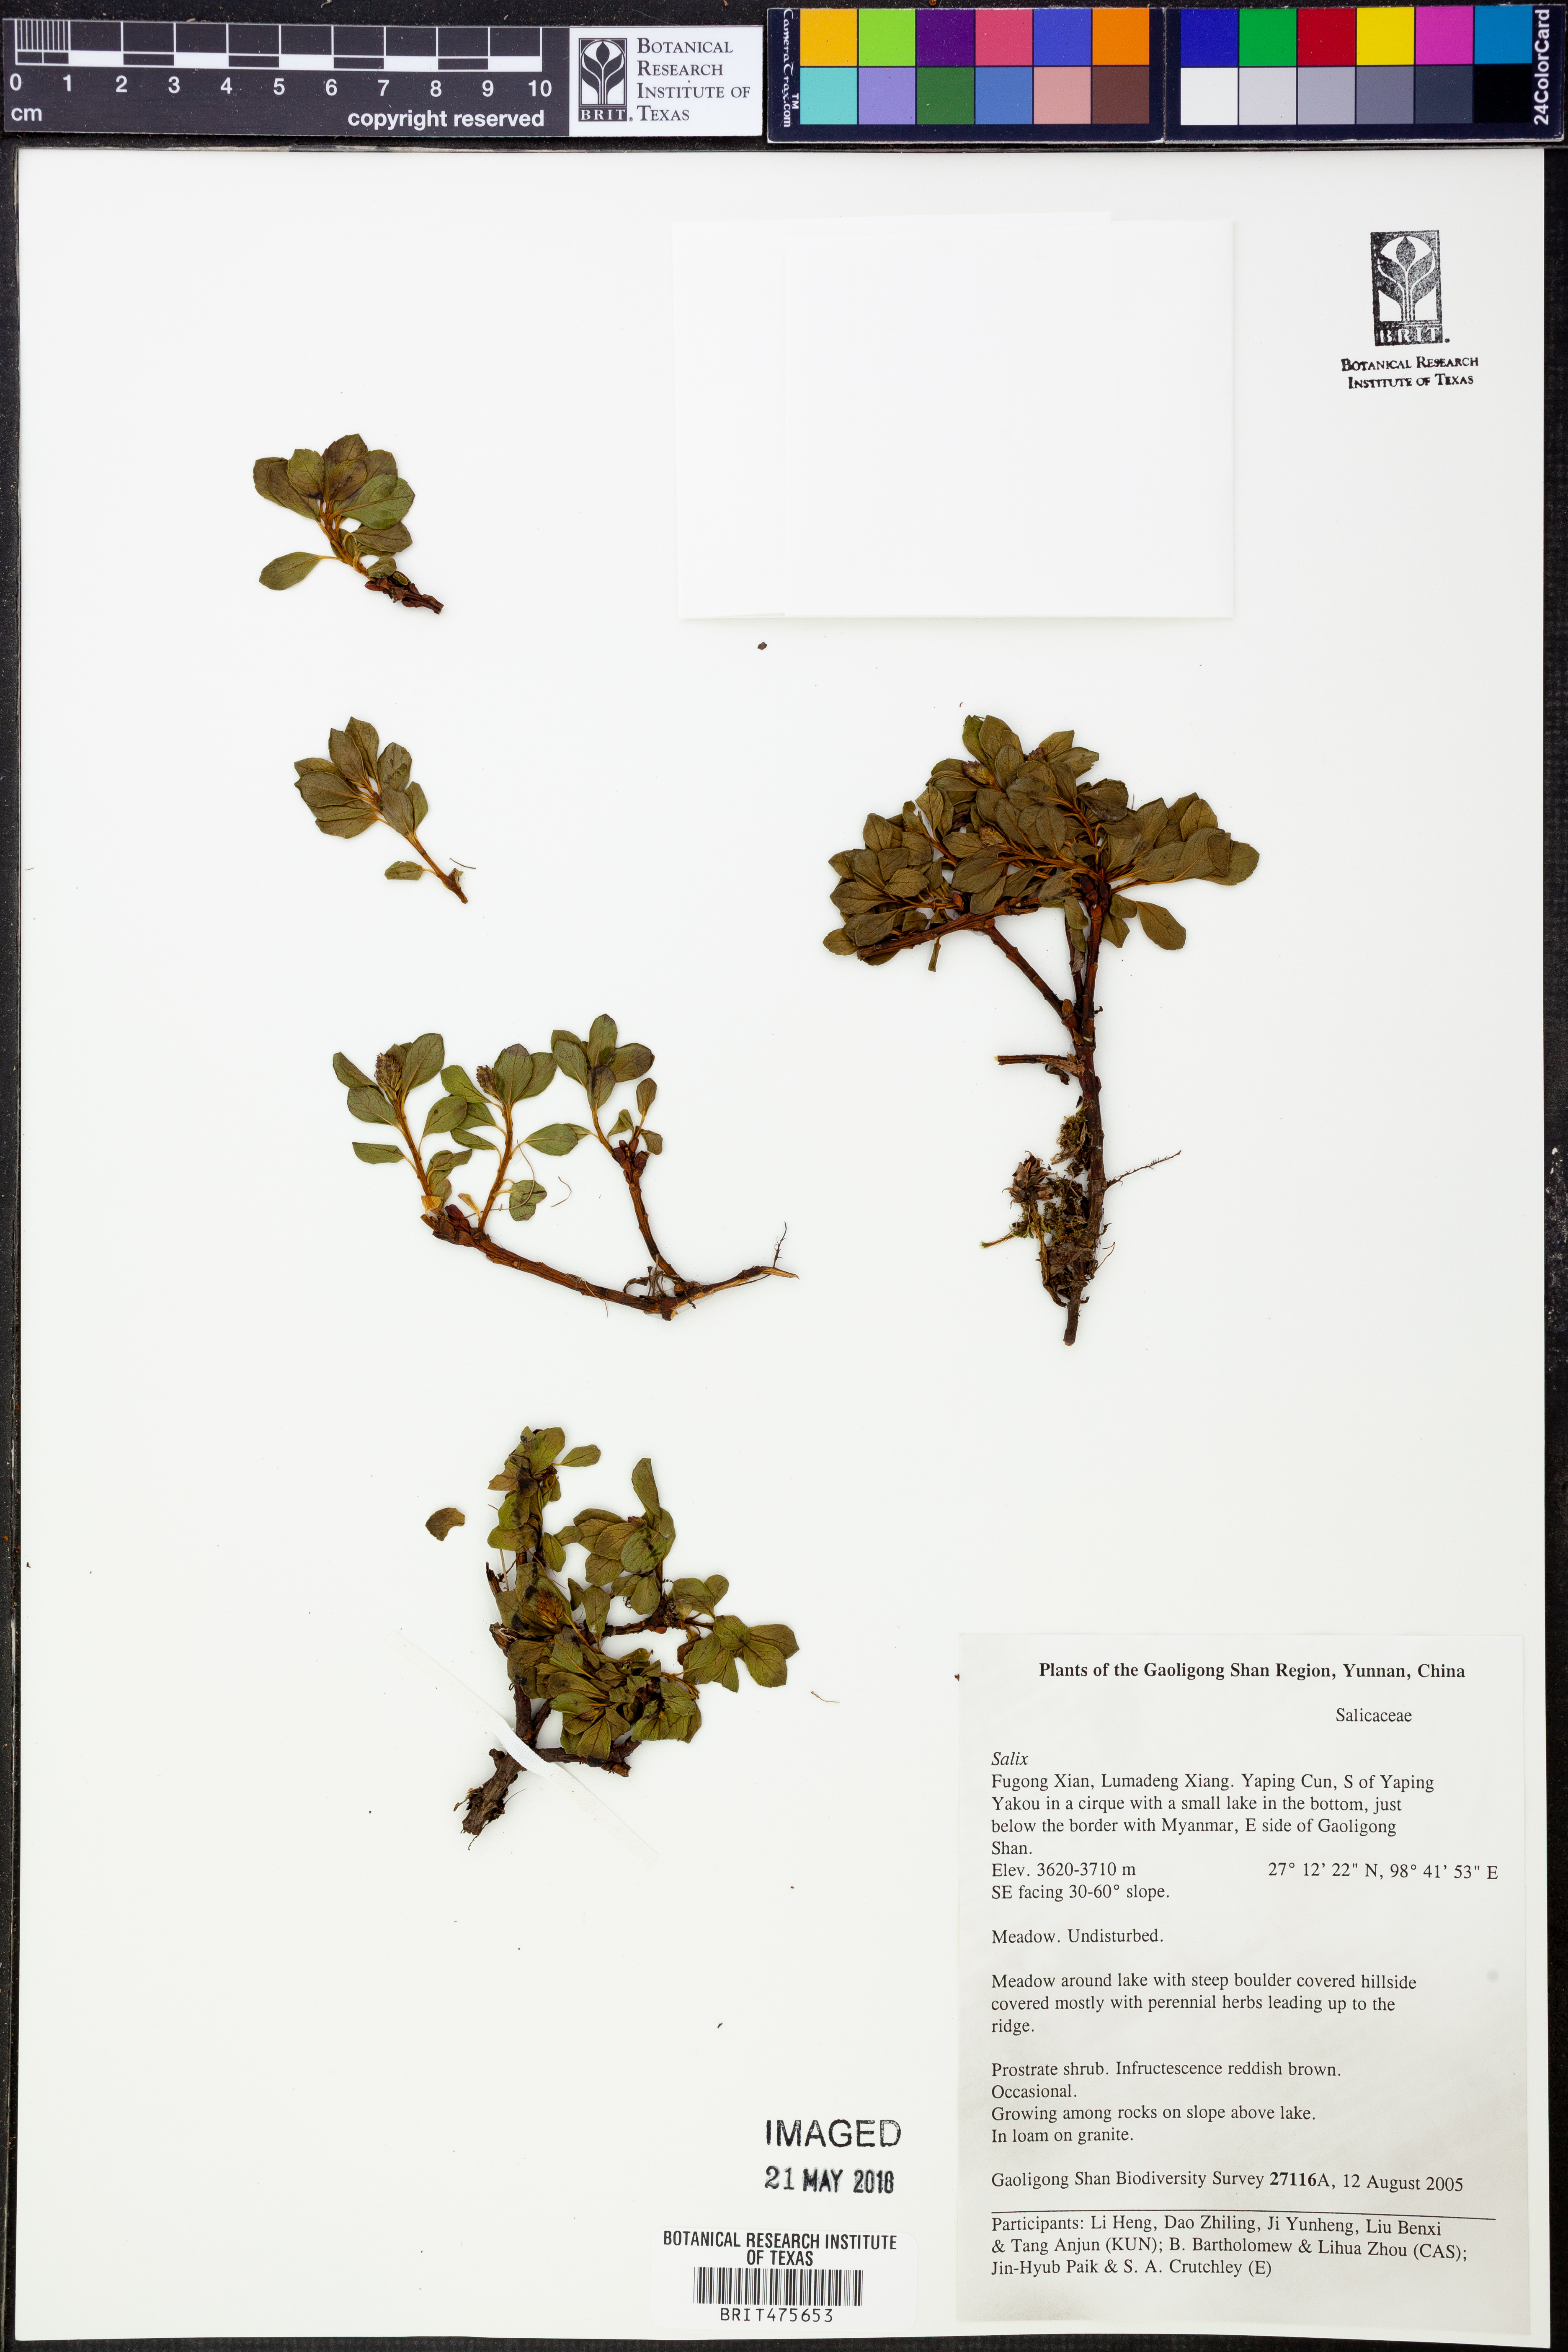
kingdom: Plantae
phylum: Tracheophyta
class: Magnoliopsida
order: Malpighiales
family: Salicaceae
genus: Salix
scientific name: Salix
